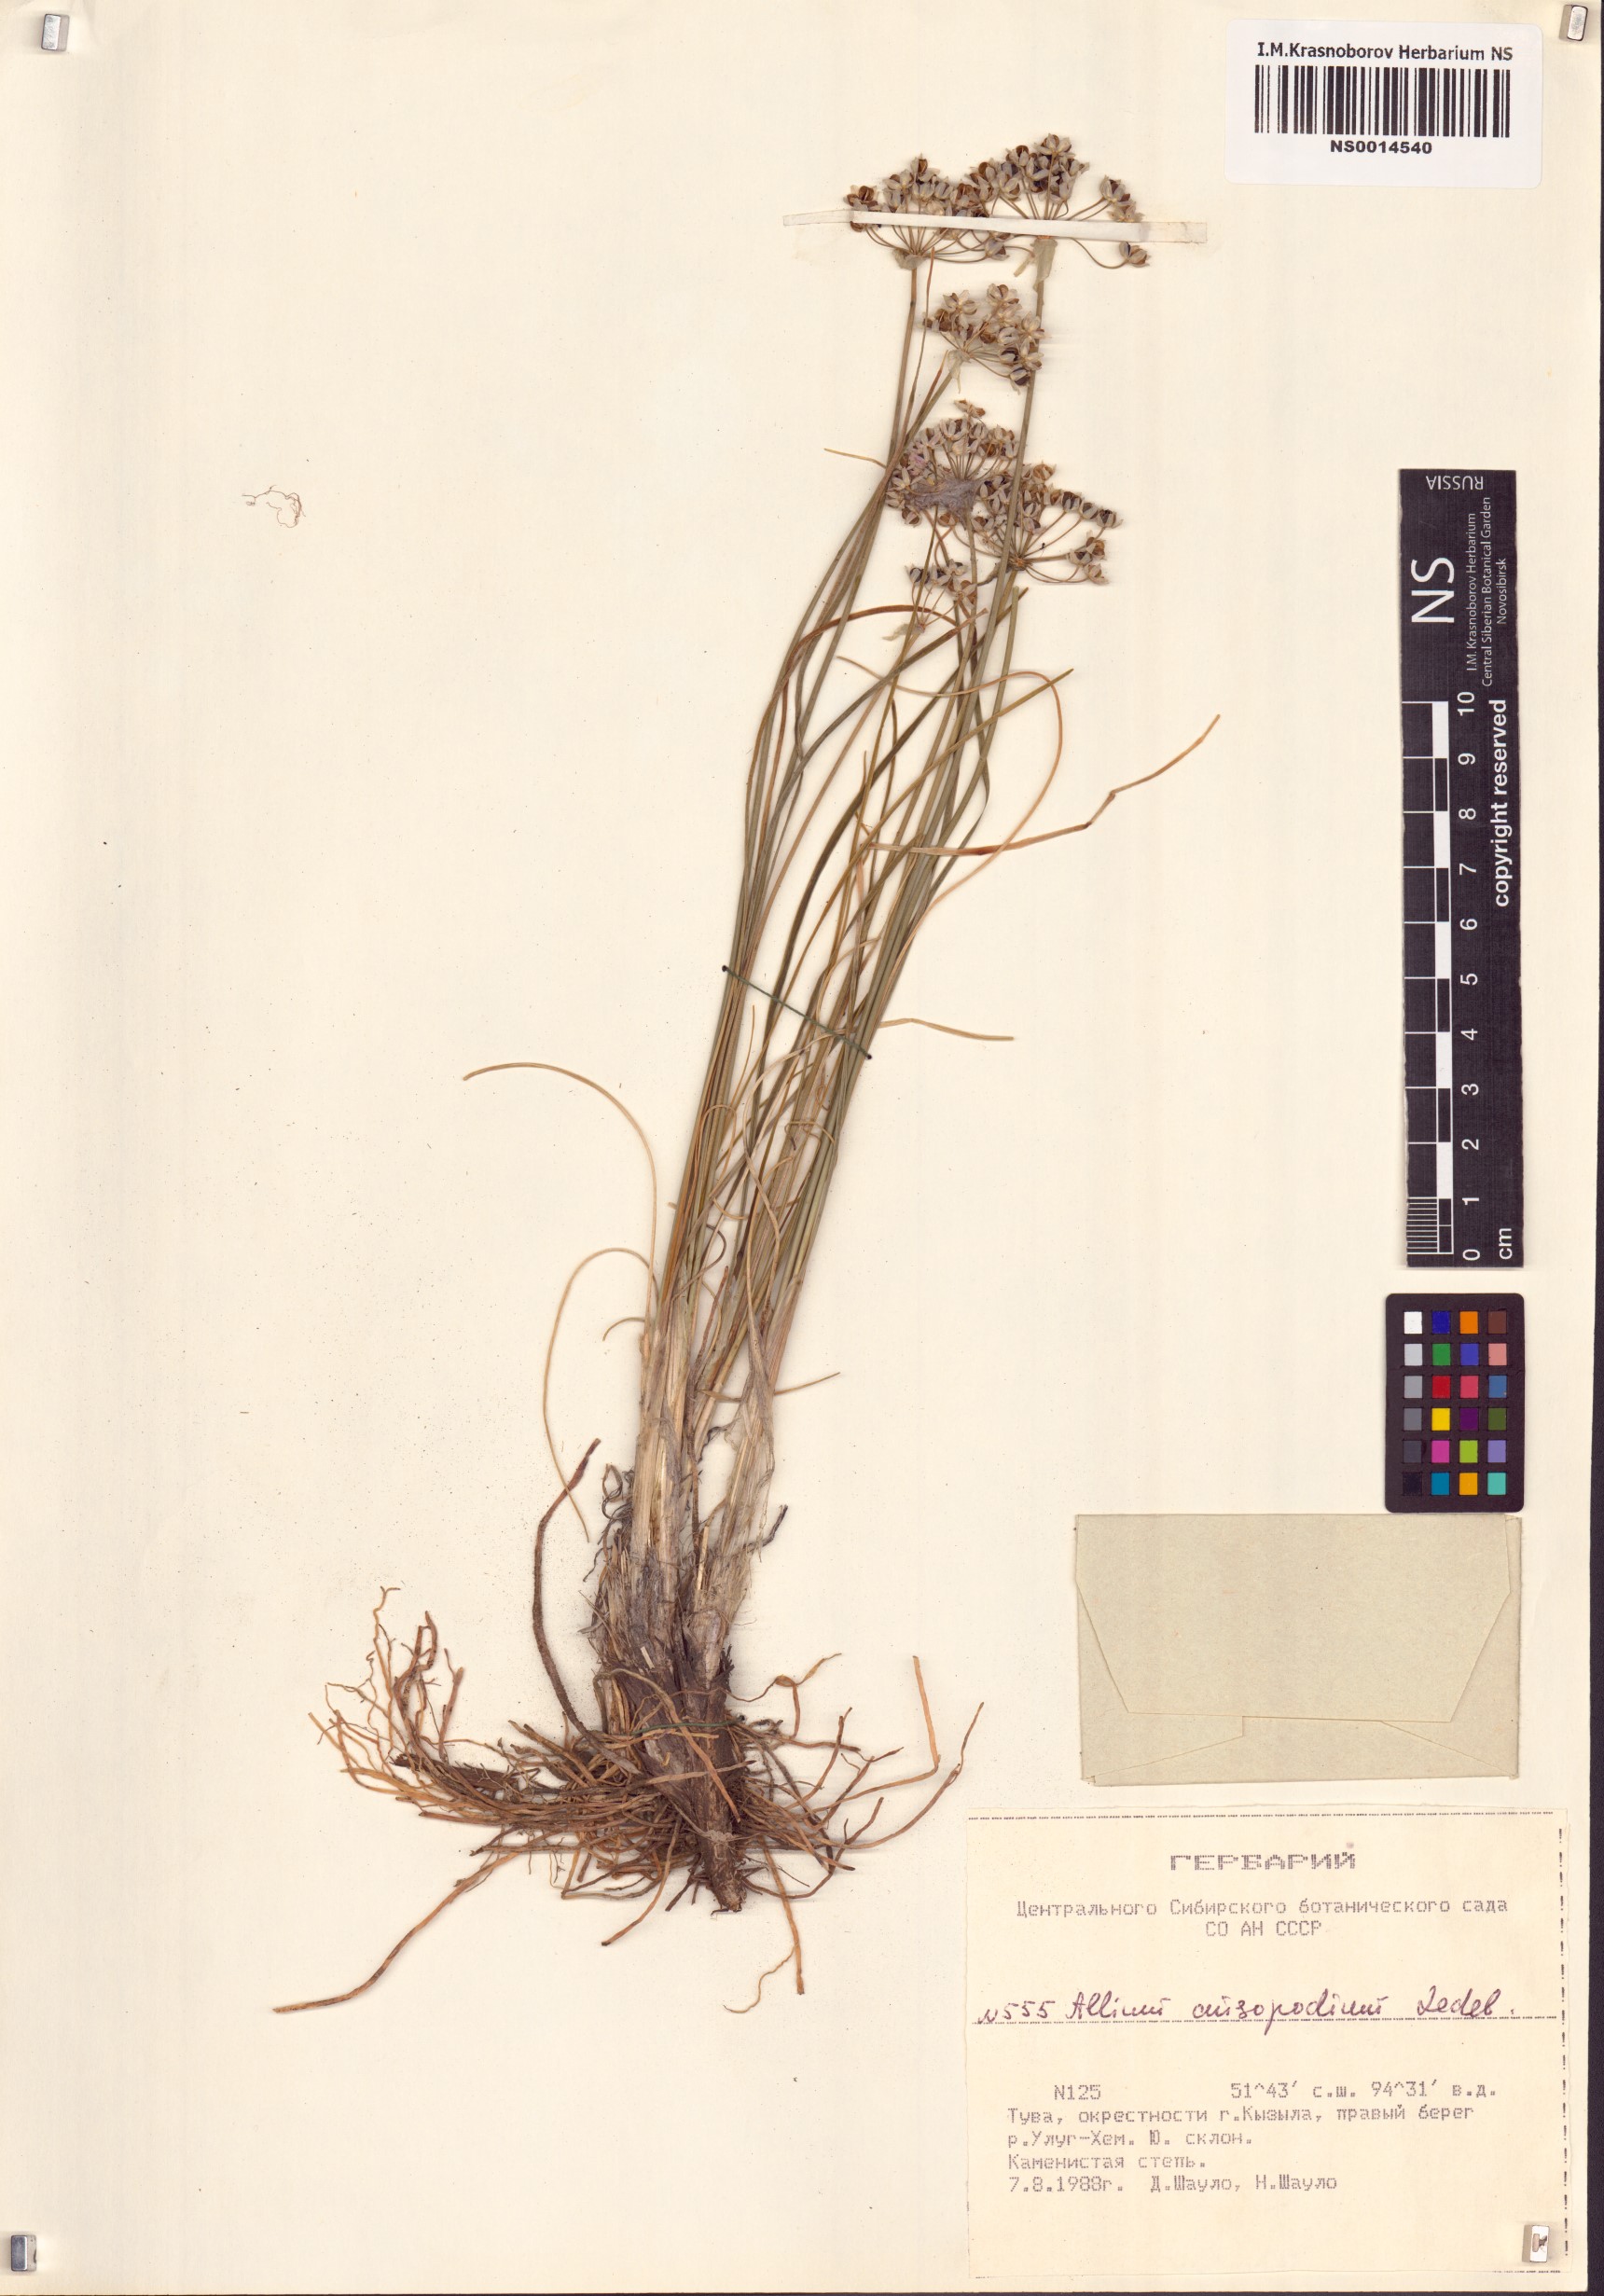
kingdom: Plantae
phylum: Tracheophyta
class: Liliopsida
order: Asparagales
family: Amaryllidaceae
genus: Allium
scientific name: Allium anisopodium
